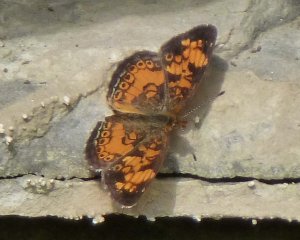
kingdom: Animalia
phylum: Arthropoda
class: Insecta
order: Lepidoptera
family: Nymphalidae
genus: Phyciodes
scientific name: Phyciodes tharos
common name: Pearl Crescent
